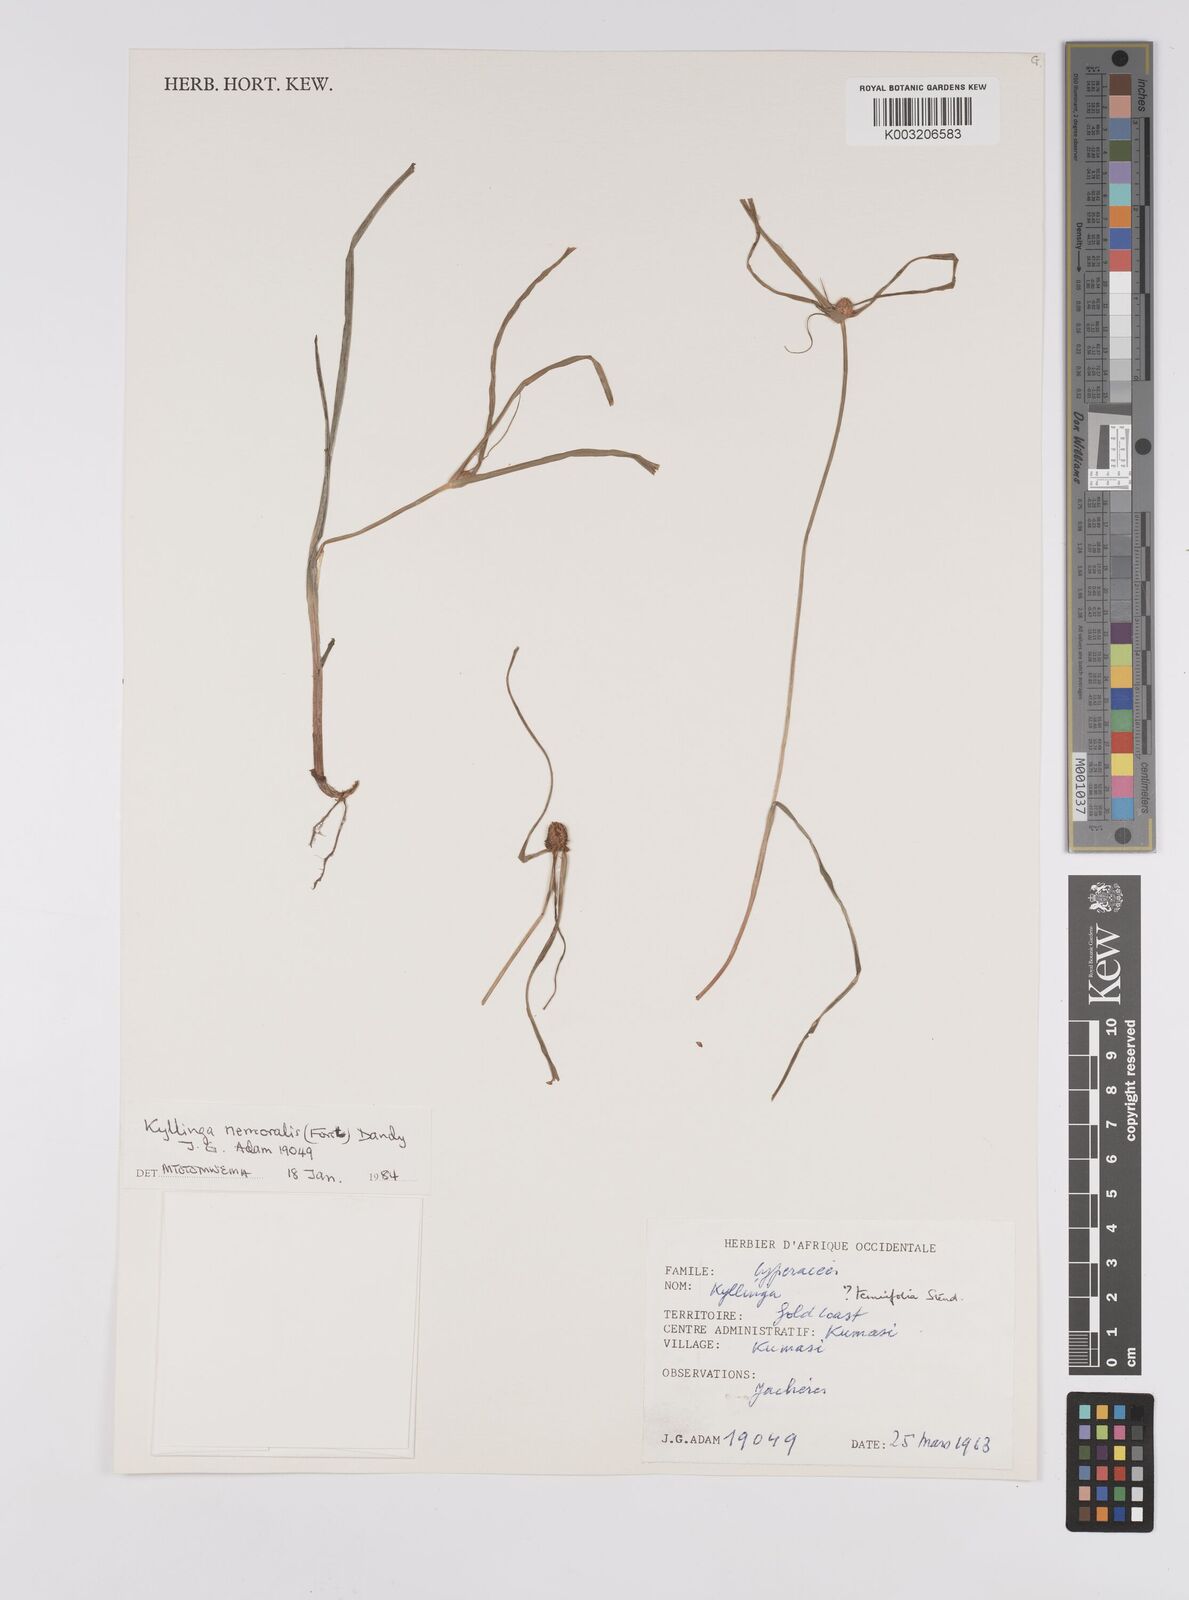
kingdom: Plantae
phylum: Tracheophyta
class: Liliopsida
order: Poales
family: Cyperaceae
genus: Cyperus
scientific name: Cyperus nemoralis
